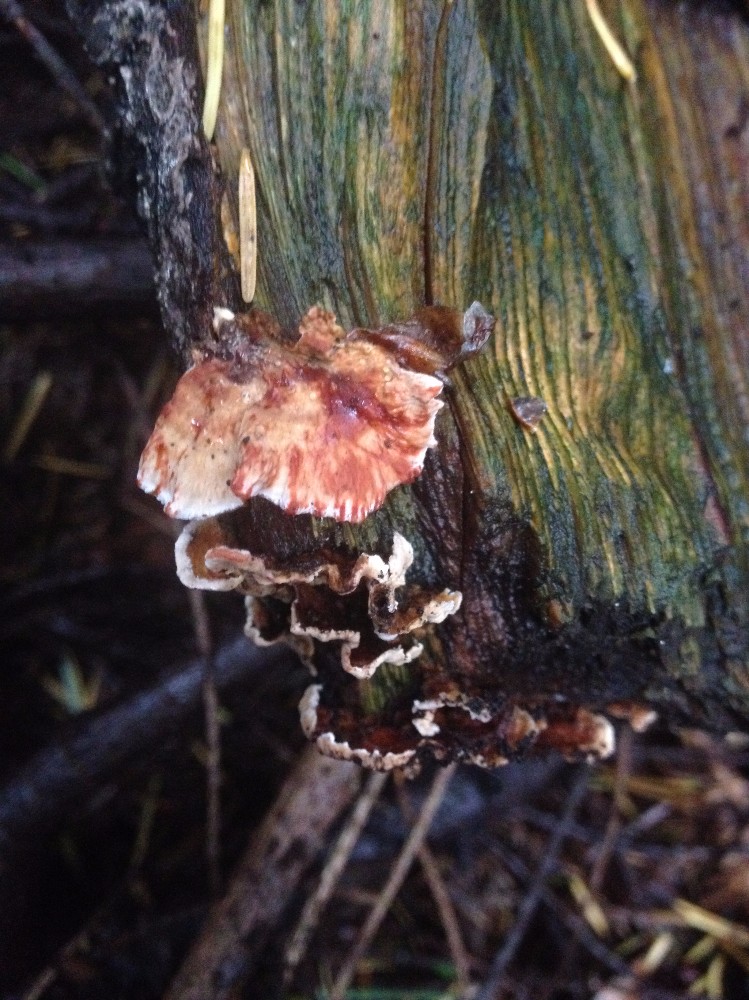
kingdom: Fungi
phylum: Basidiomycota
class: Agaricomycetes
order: Russulales
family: Stereaceae
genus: Stereum
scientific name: Stereum sanguinolentum
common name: blødende lædersvamp
